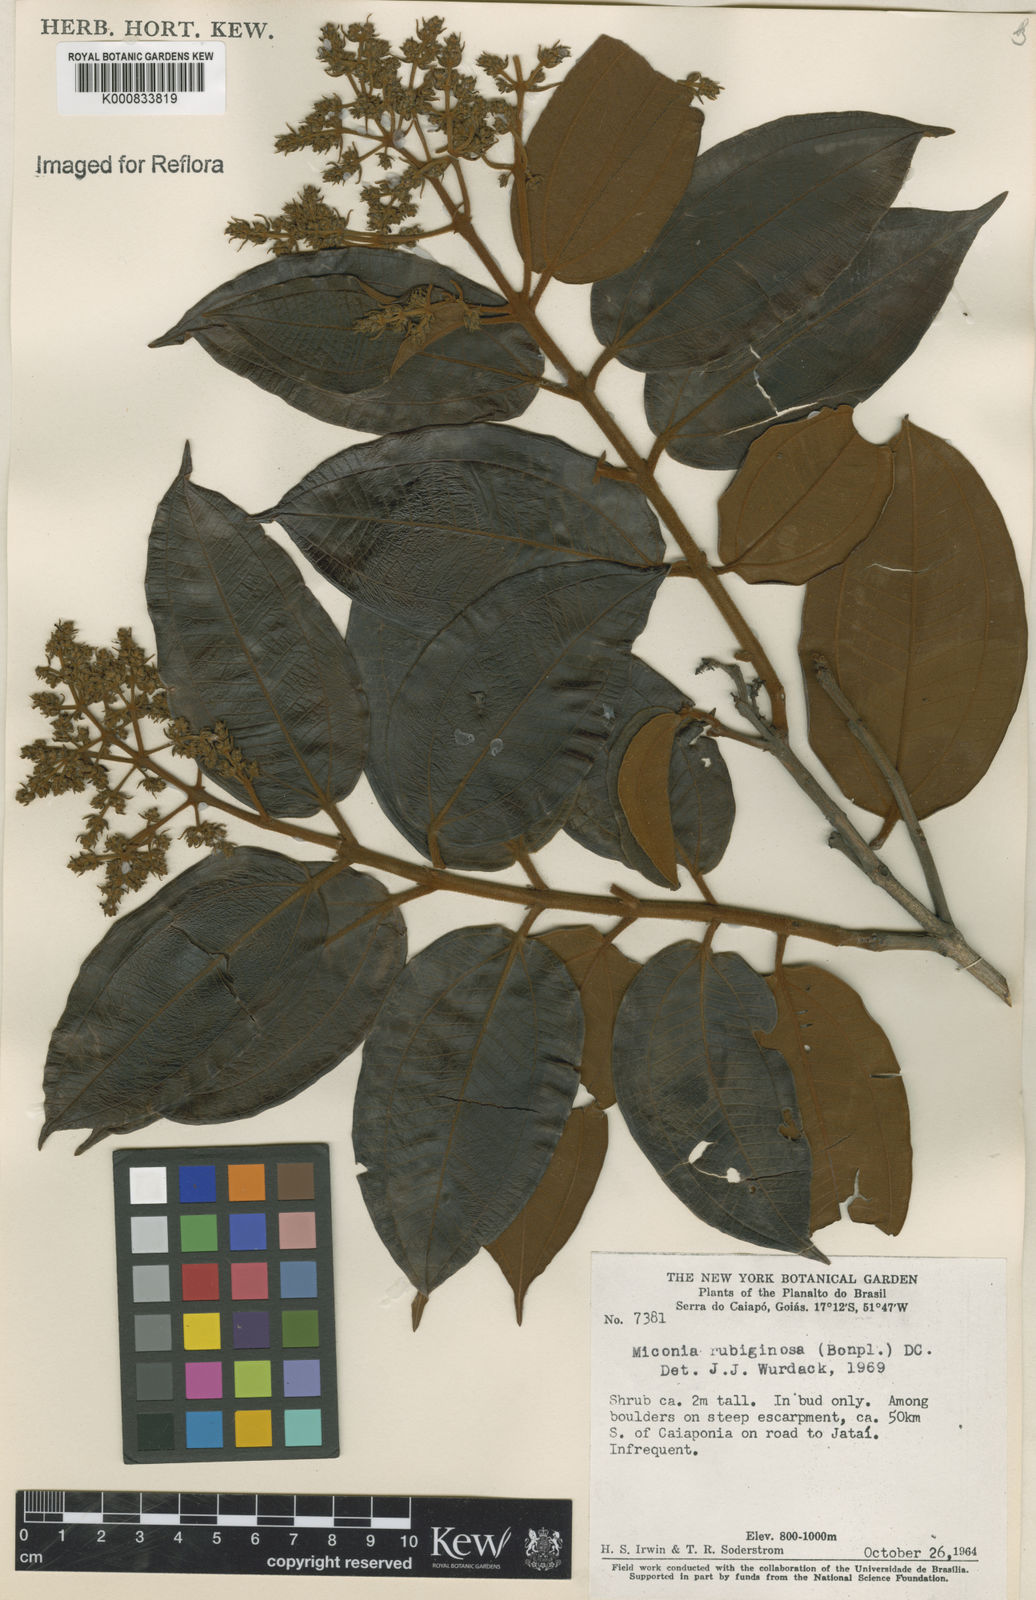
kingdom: Plantae
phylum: Tracheophyta
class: Magnoliopsida
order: Myrtales
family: Melastomataceae
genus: Miconia
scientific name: Miconia rubiginosa
